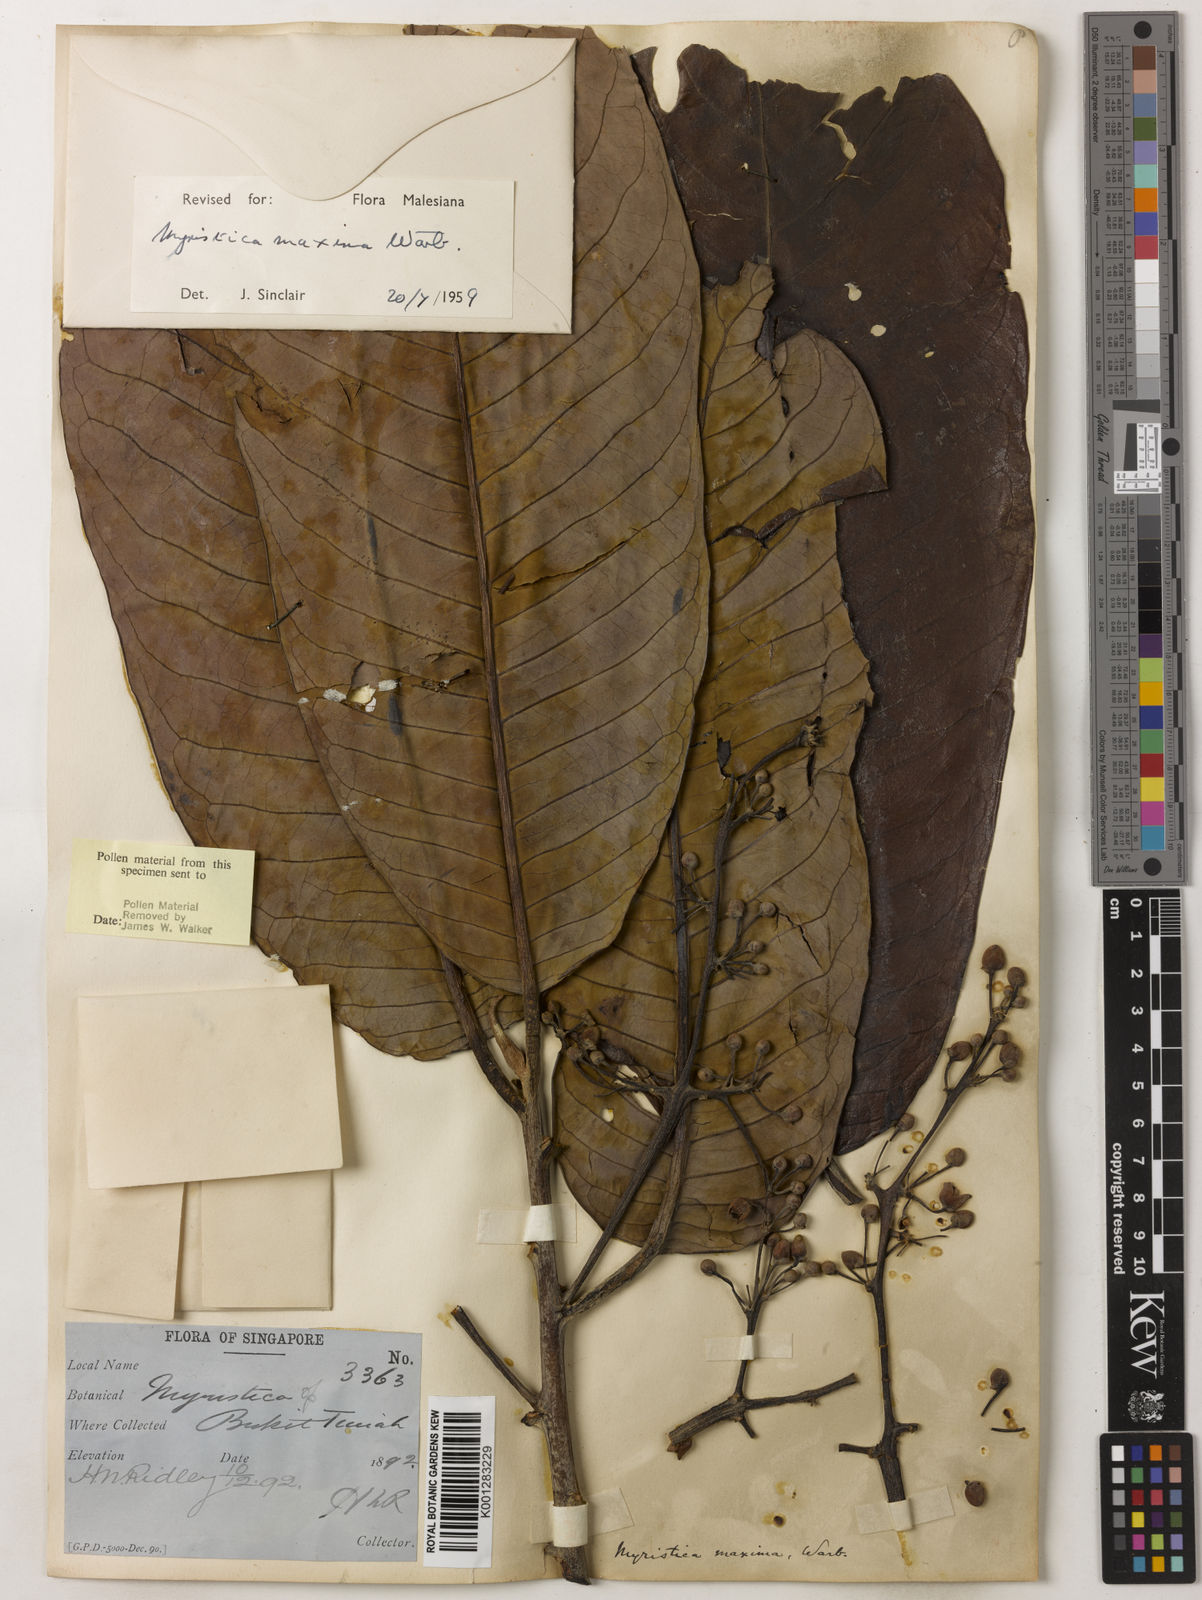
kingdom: Plantae
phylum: Tracheophyta
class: Magnoliopsida
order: Magnoliales
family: Myristicaceae
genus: Myristica
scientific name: Myristica maxima
